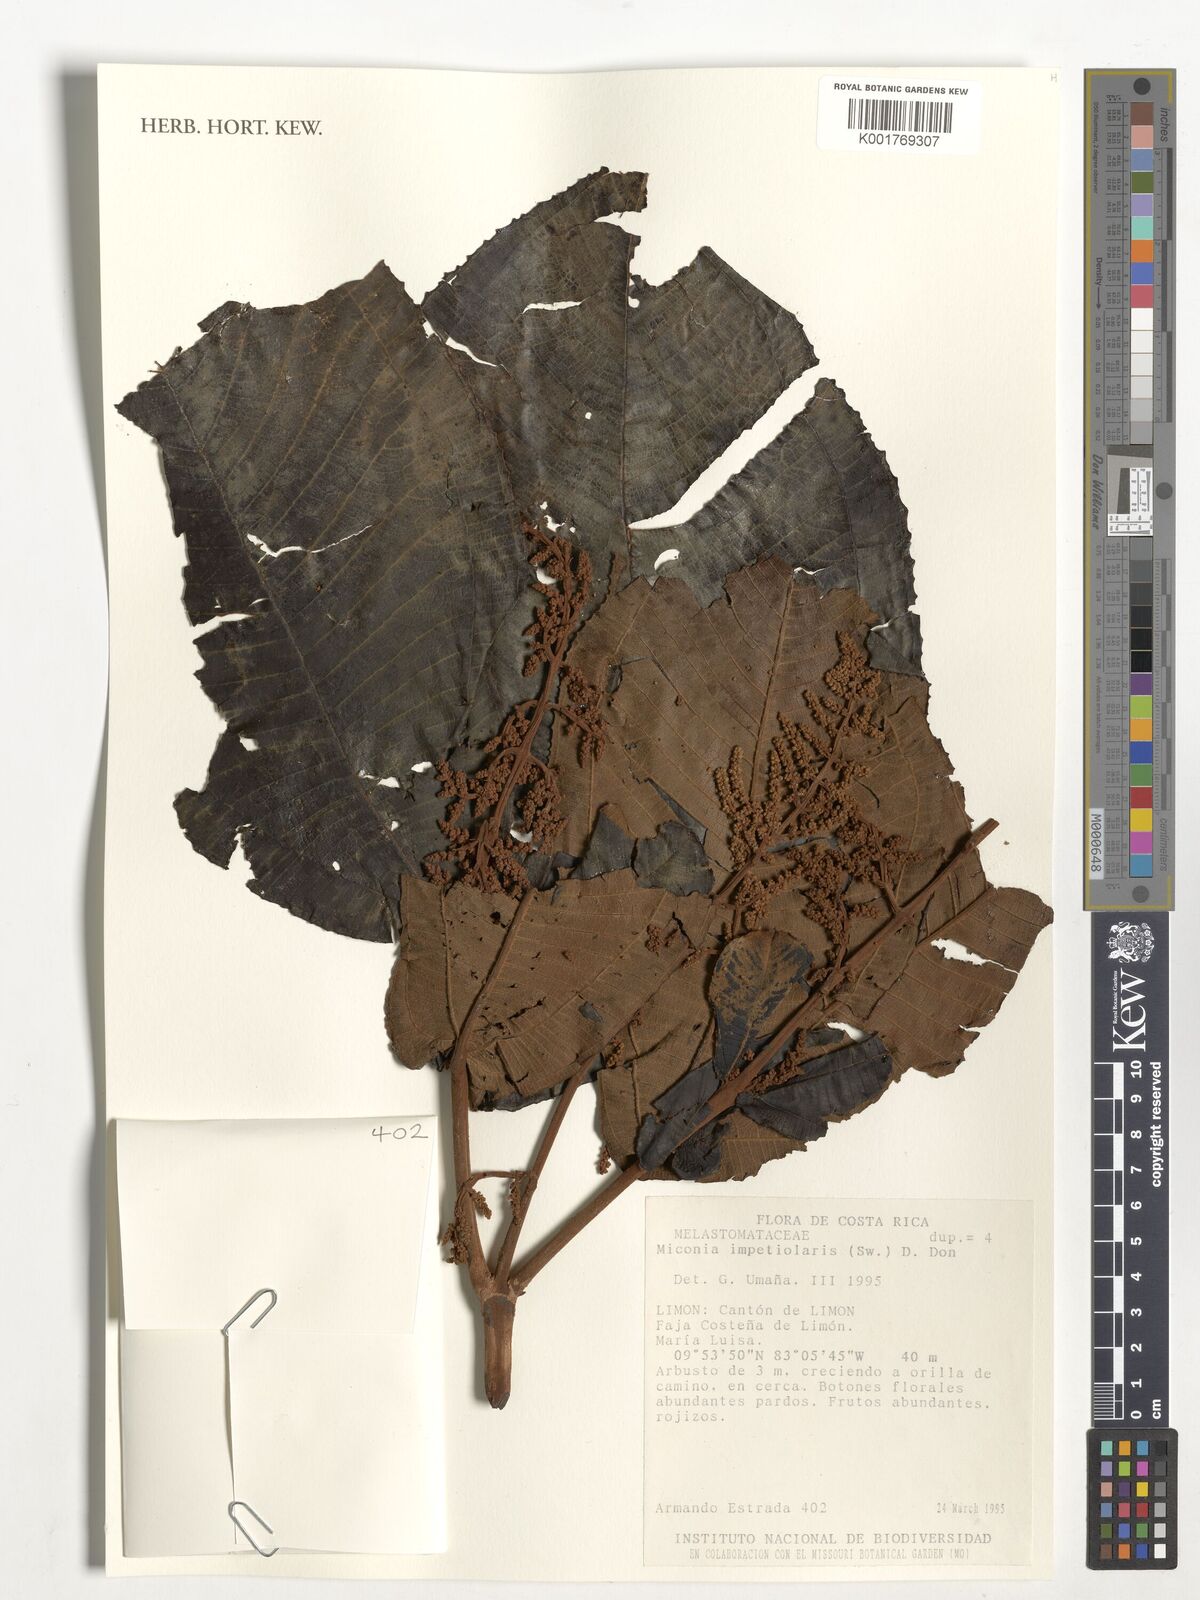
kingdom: Plantae
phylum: Tracheophyta
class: Magnoliopsida
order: Myrtales
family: Melastomataceae
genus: Miconia
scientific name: Miconia impetiolaris
